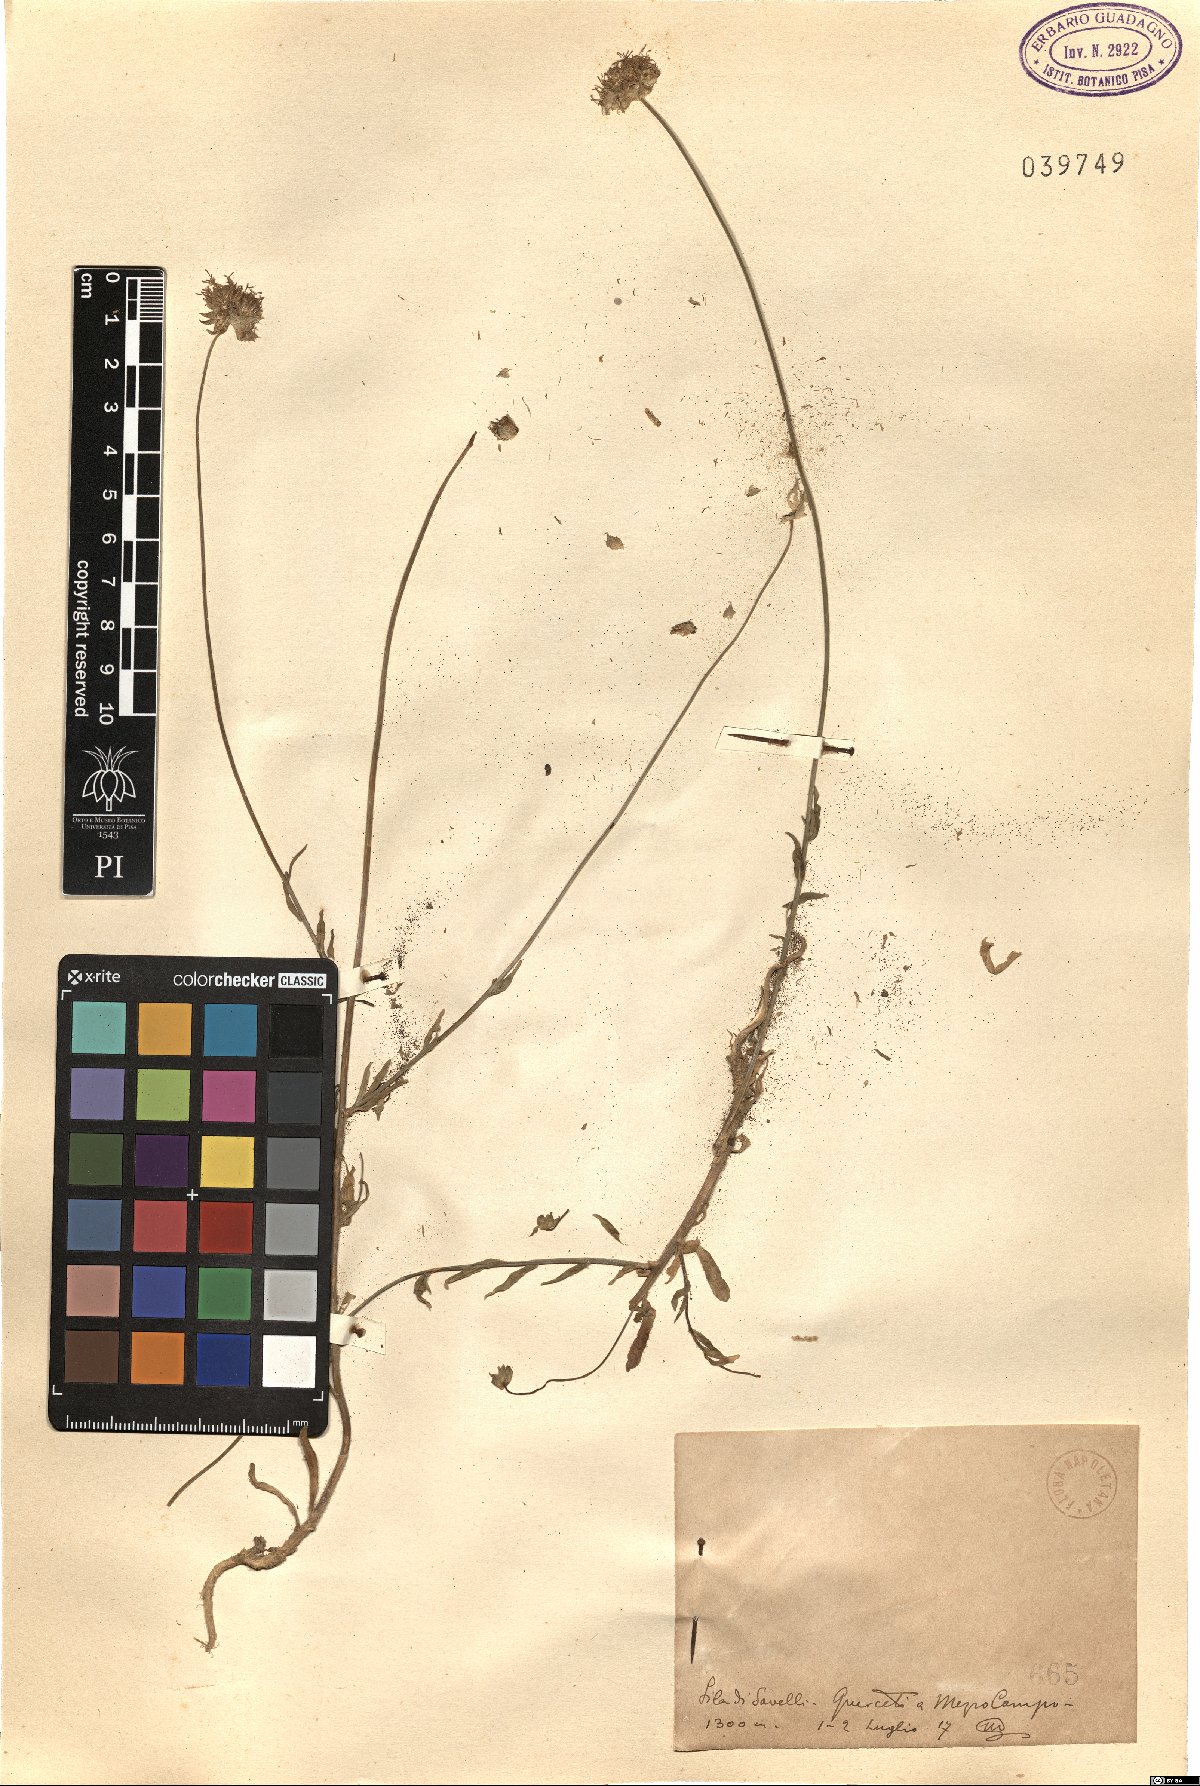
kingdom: Plantae
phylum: Tracheophyta
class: Magnoliopsida
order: Asterales
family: Campanulaceae
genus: Jasione
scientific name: Jasione
